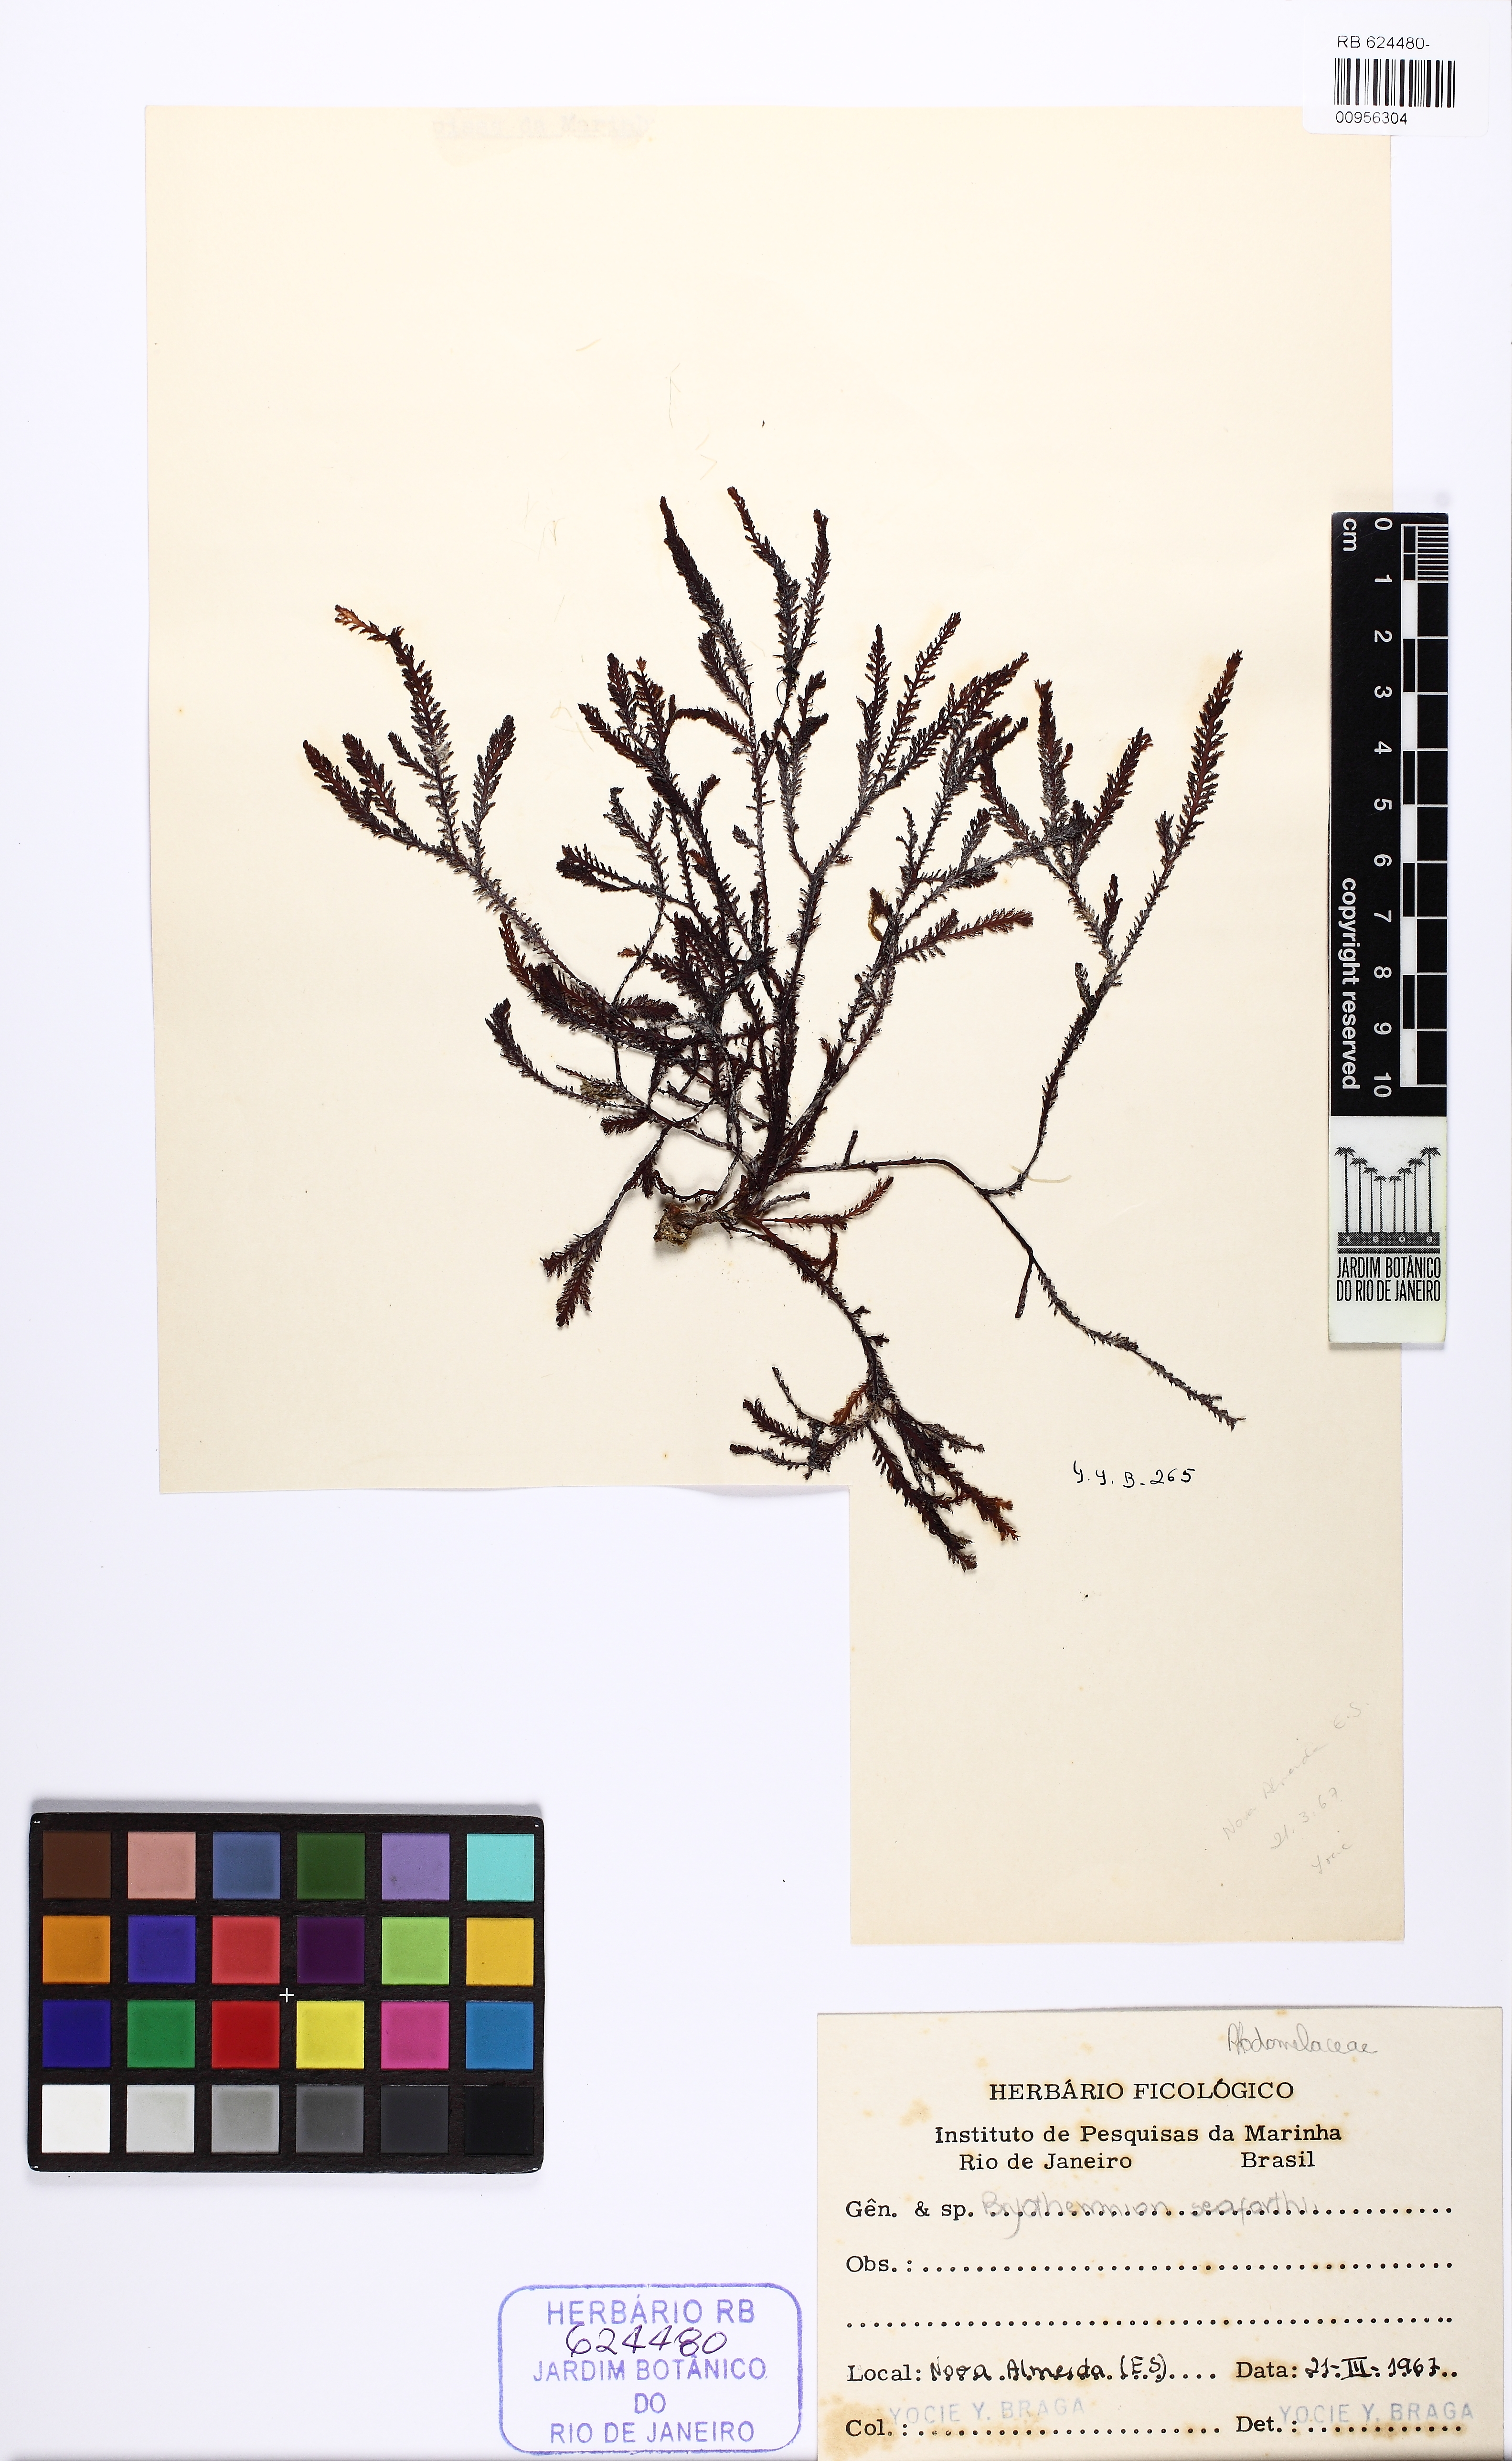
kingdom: Plantae
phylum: Rhodophyta
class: Florideophyceae
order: Ceramiales
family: Rhodomelaceae
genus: Alsidium
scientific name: Alsidium seaforthii
